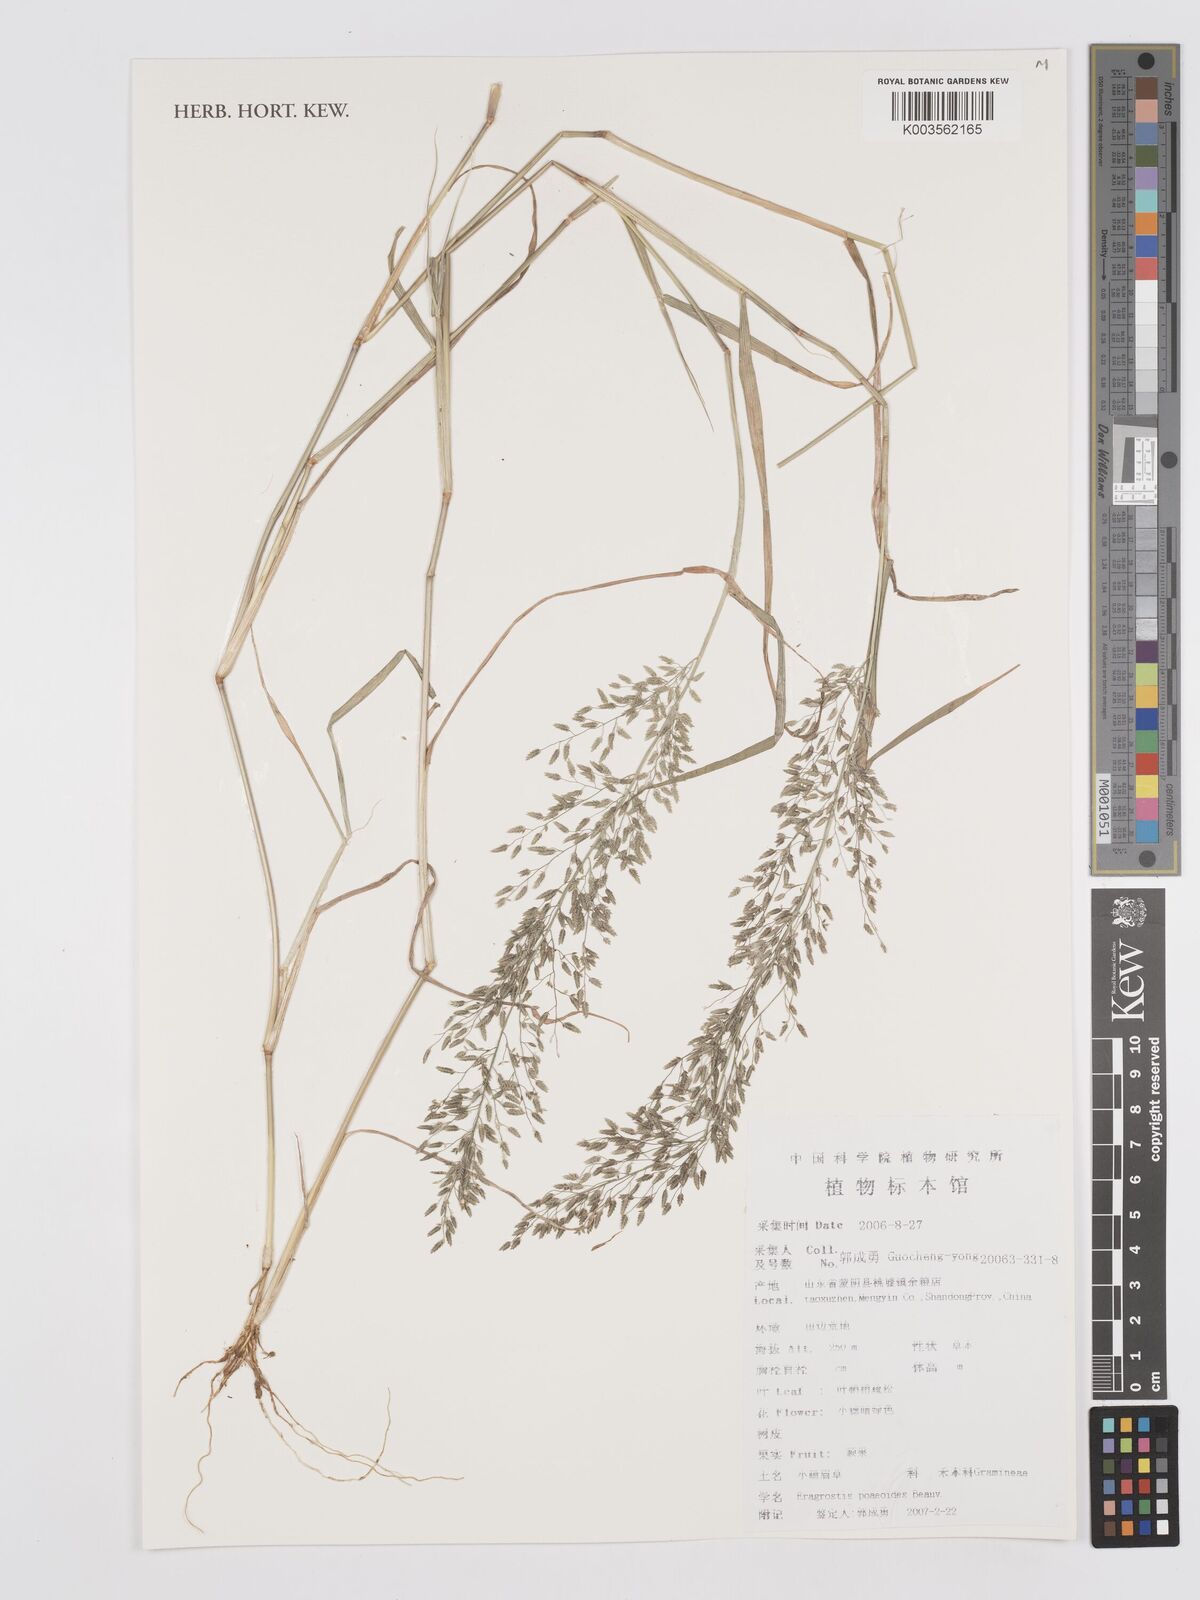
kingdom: Plantae
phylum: Tracheophyta
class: Liliopsida
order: Poales
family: Poaceae
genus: Eragrostis
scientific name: Eragrostis minor
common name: Small love-grass
